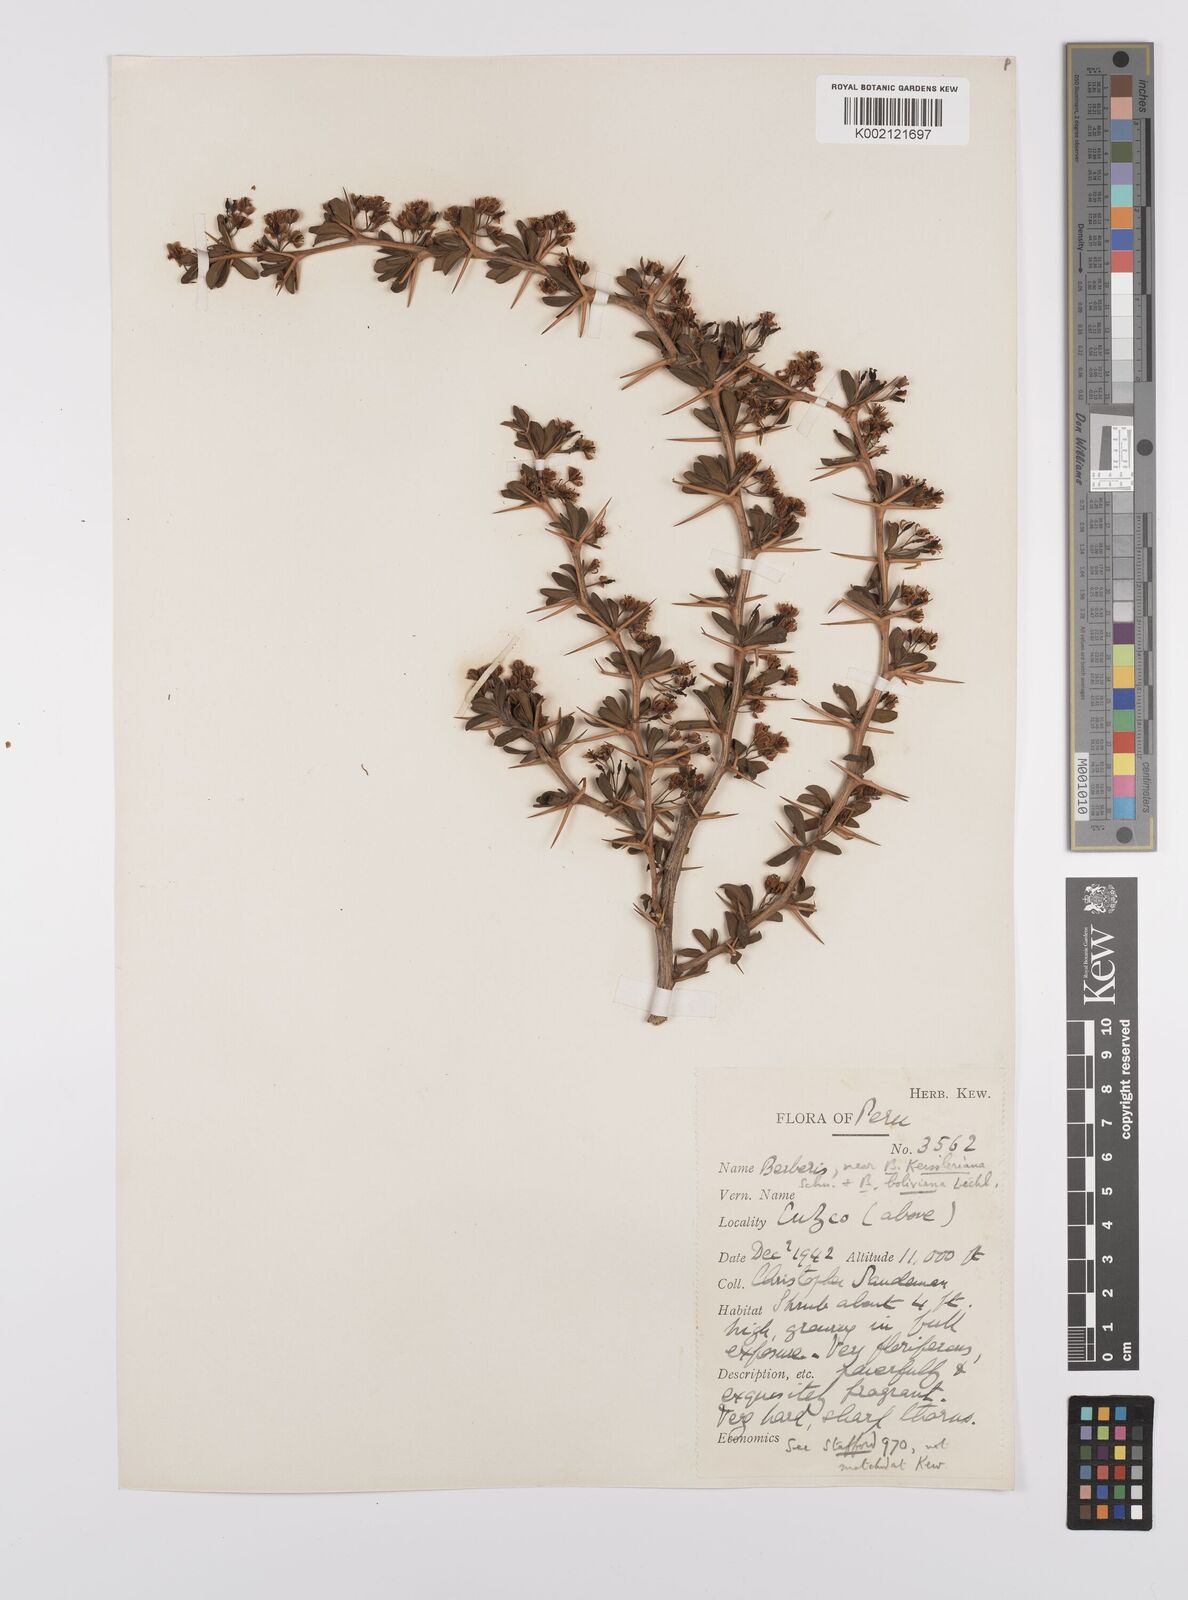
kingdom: Plantae
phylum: Tracheophyta
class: Magnoliopsida
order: Ranunculales
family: Berberidaceae
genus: Berberis
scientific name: Berberis boliviana
